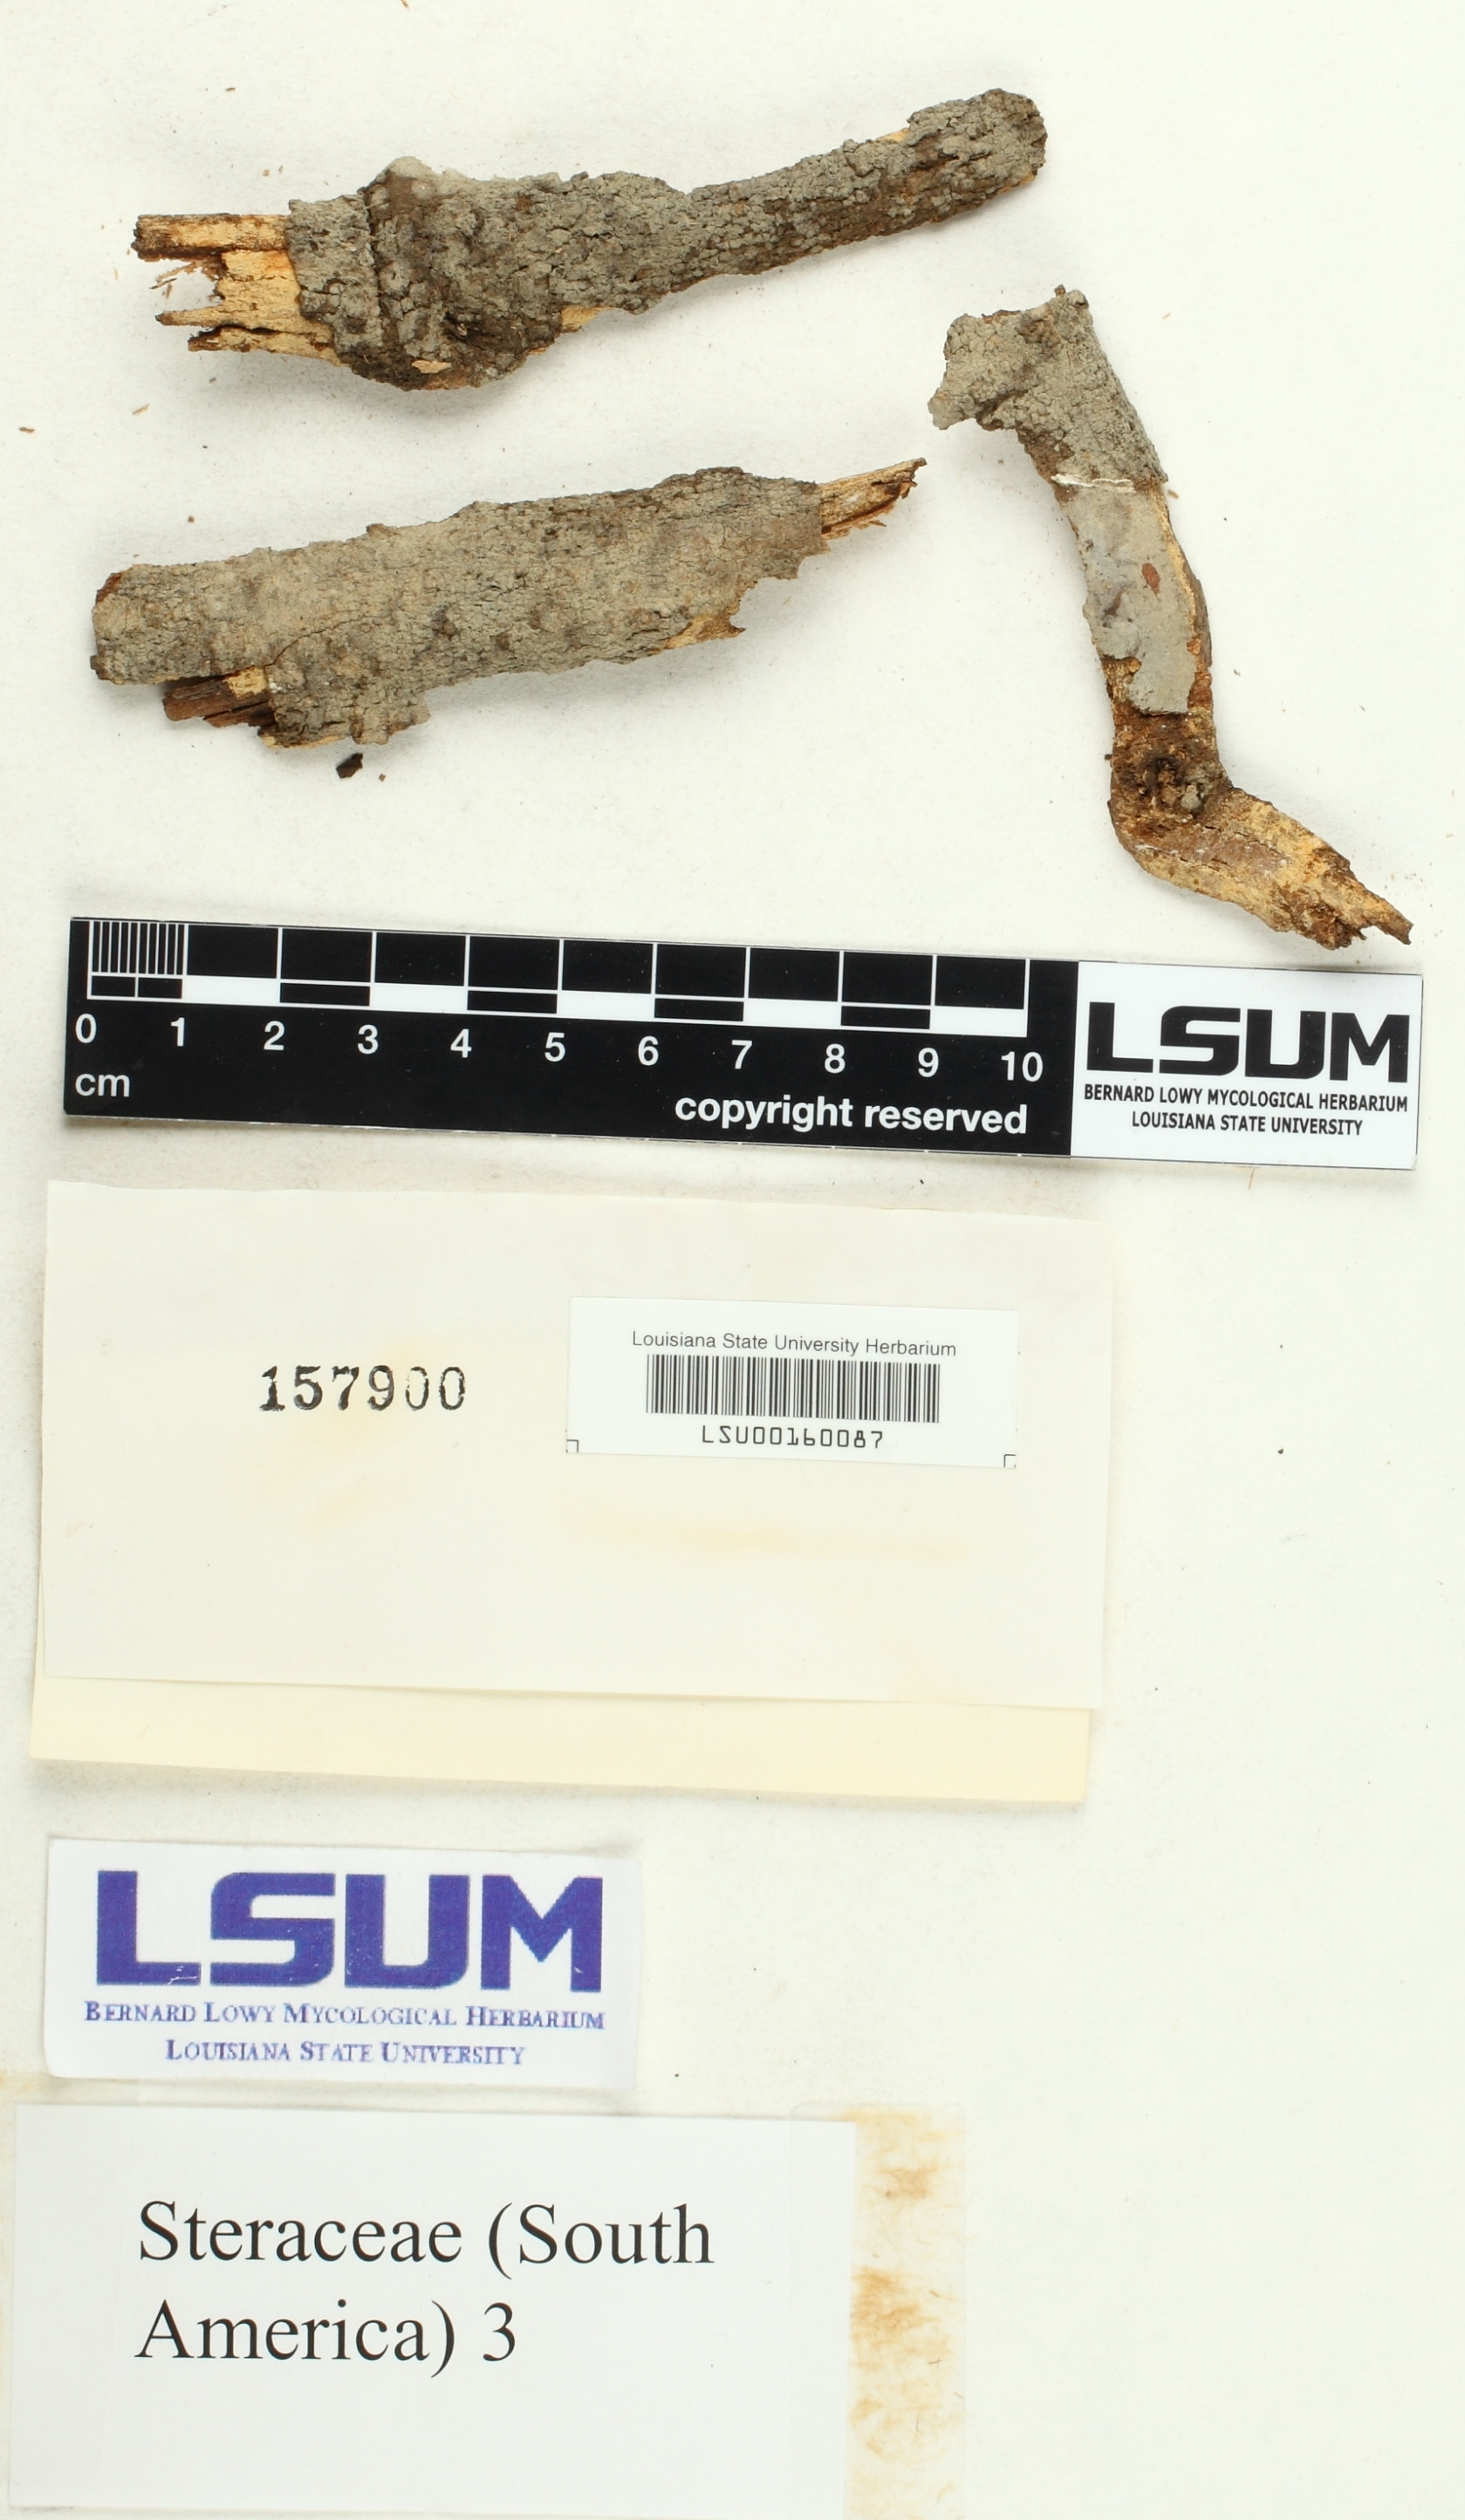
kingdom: Fungi
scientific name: Fungi
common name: Fungi
